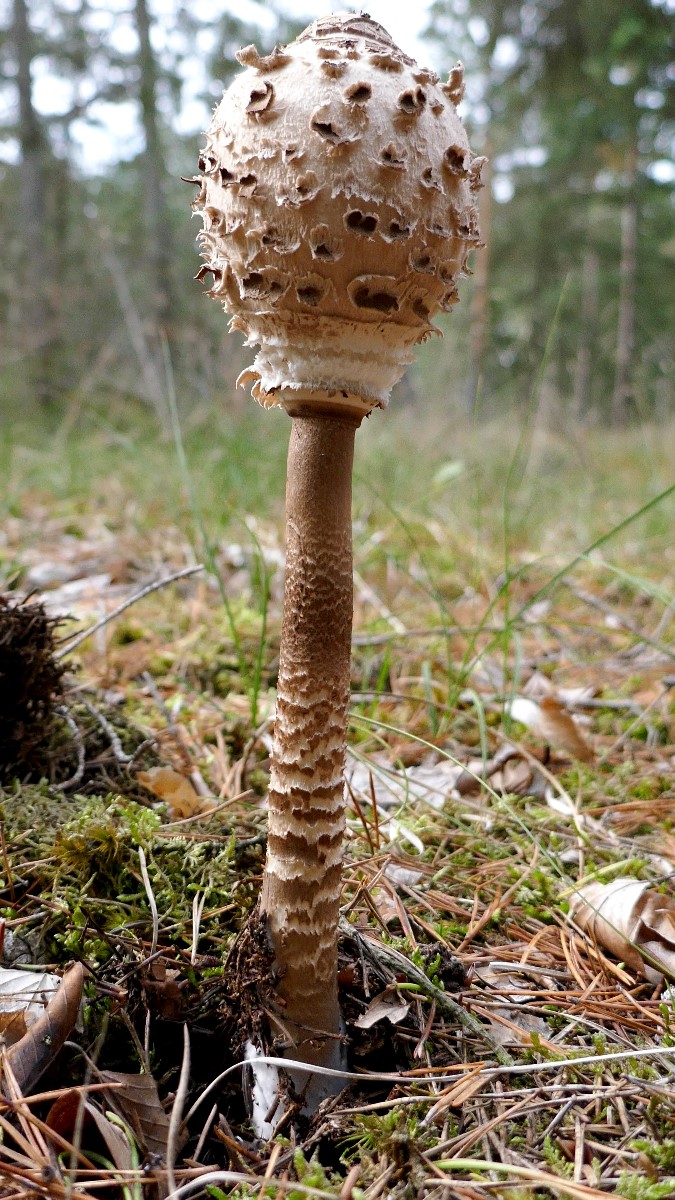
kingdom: Fungi
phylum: Basidiomycota
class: Agaricomycetes
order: Agaricales
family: Agaricaceae
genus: Macrolepiota
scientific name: Macrolepiota procera
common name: stor kæmpeparasolhat
